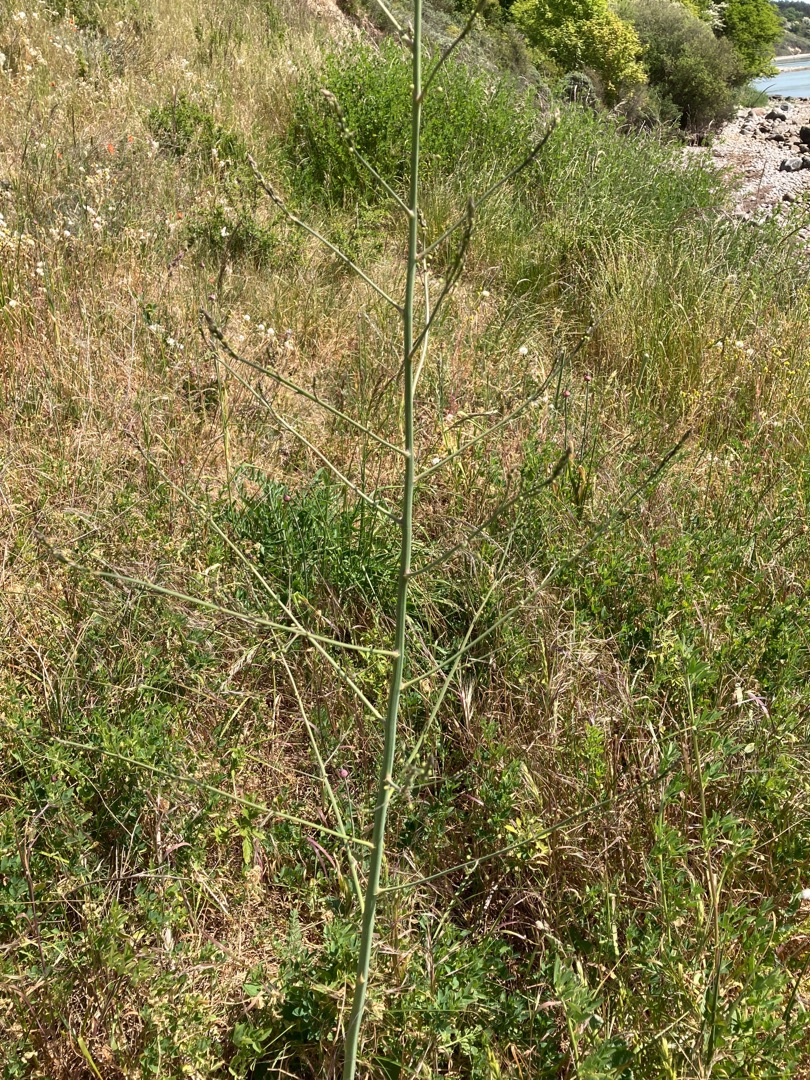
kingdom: Plantae
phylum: Tracheophyta
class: Liliopsida
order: Asparagales
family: Asparagaceae
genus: Asparagus
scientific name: Asparagus officinalis
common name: Asparges
